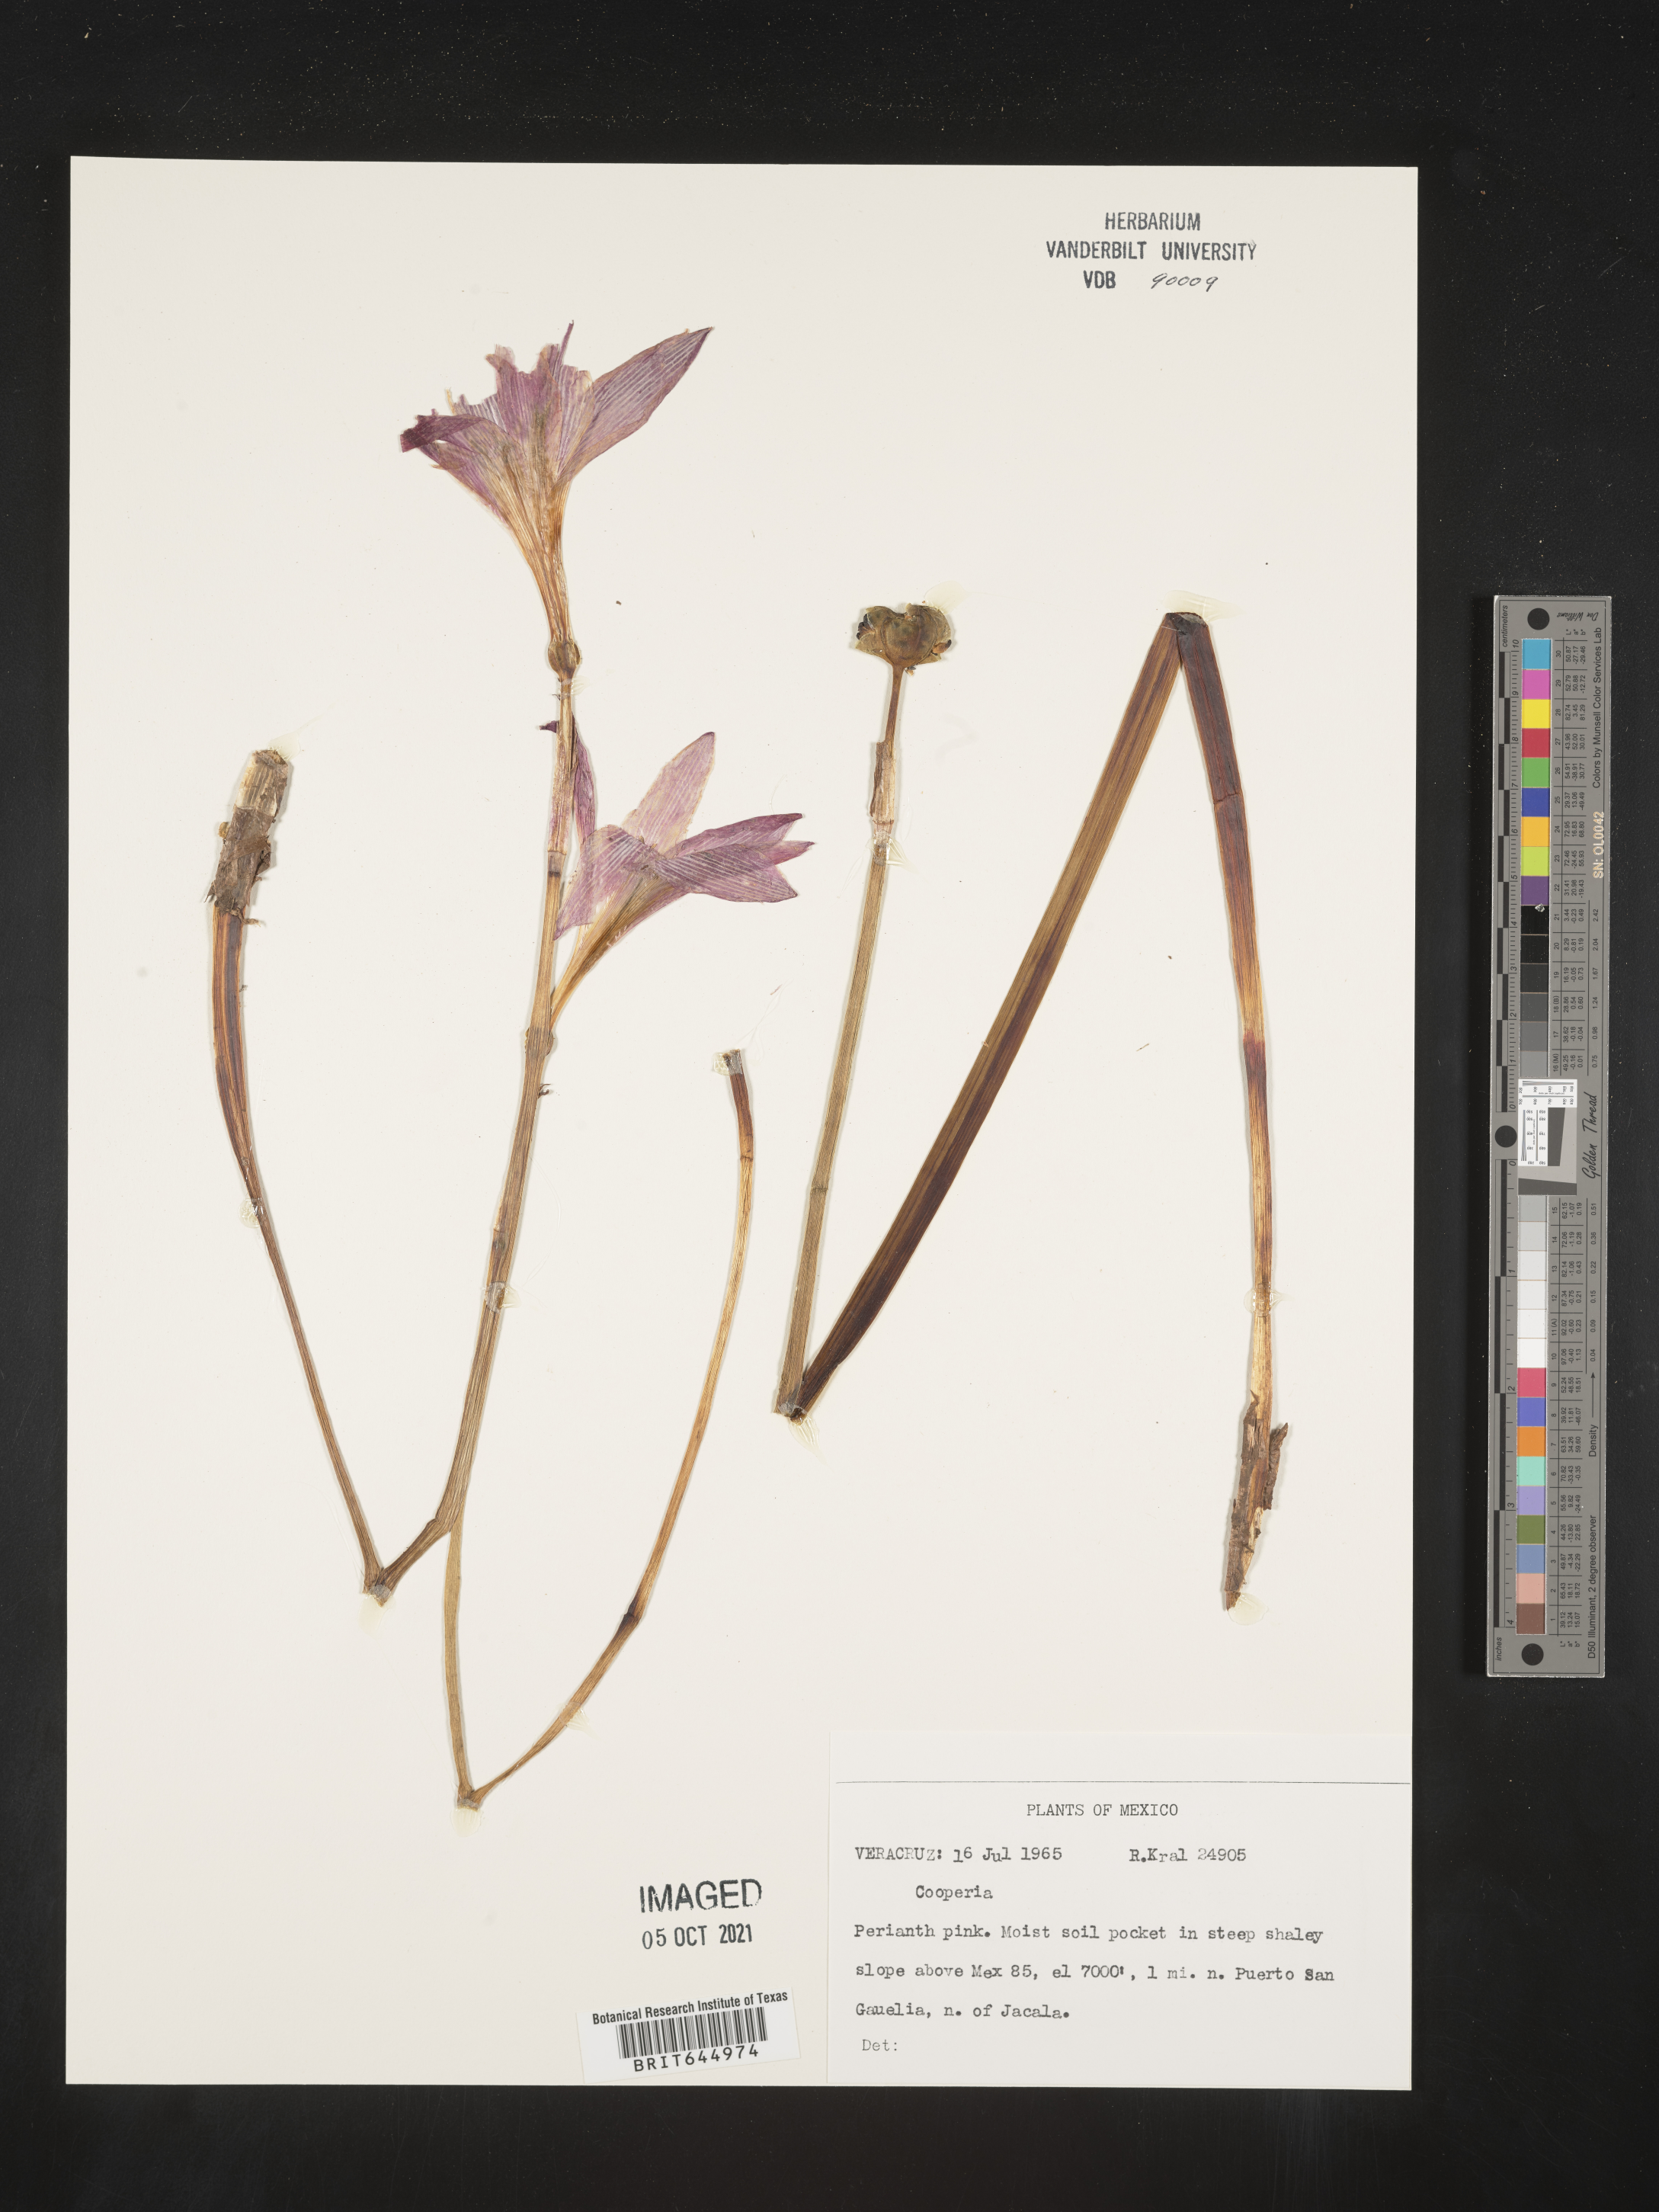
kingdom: Plantae
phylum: Tracheophyta
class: Liliopsida
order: Asparagales
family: Amaryllidaceae
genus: Zephyranthes
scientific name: Zephyranthes Cooperia spec
